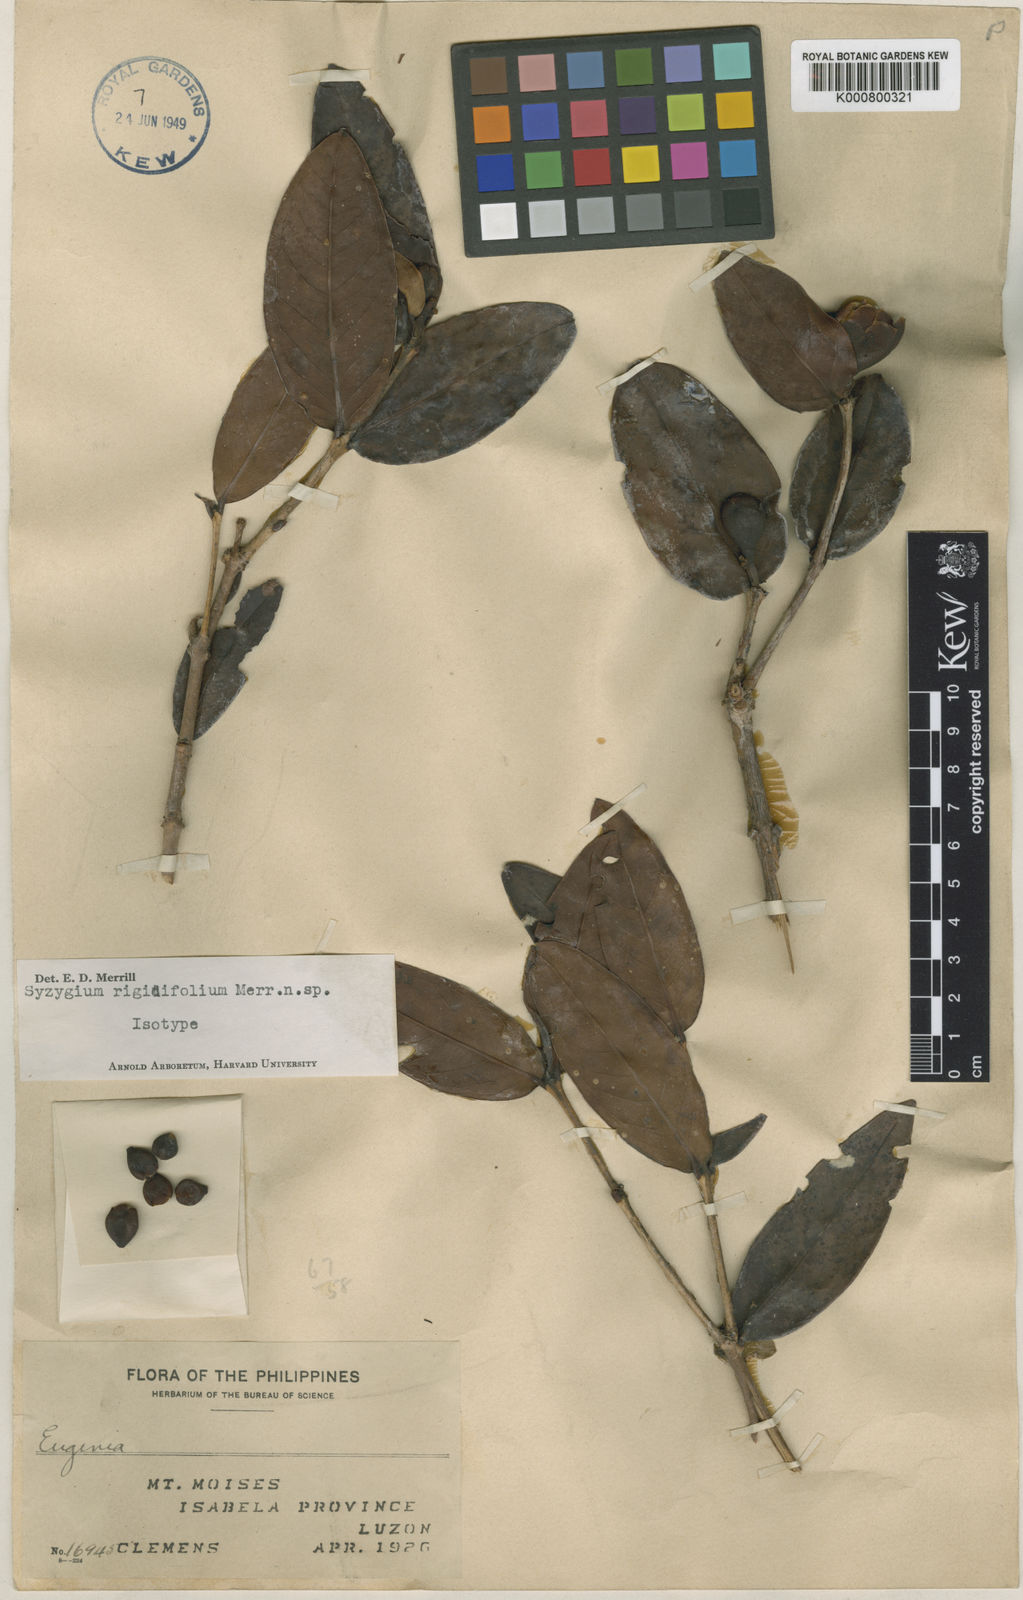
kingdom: Plantae
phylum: Tracheophyta
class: Magnoliopsida
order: Myrtales
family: Myrtaceae
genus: Syzygium
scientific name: Syzygium rigidifolium
